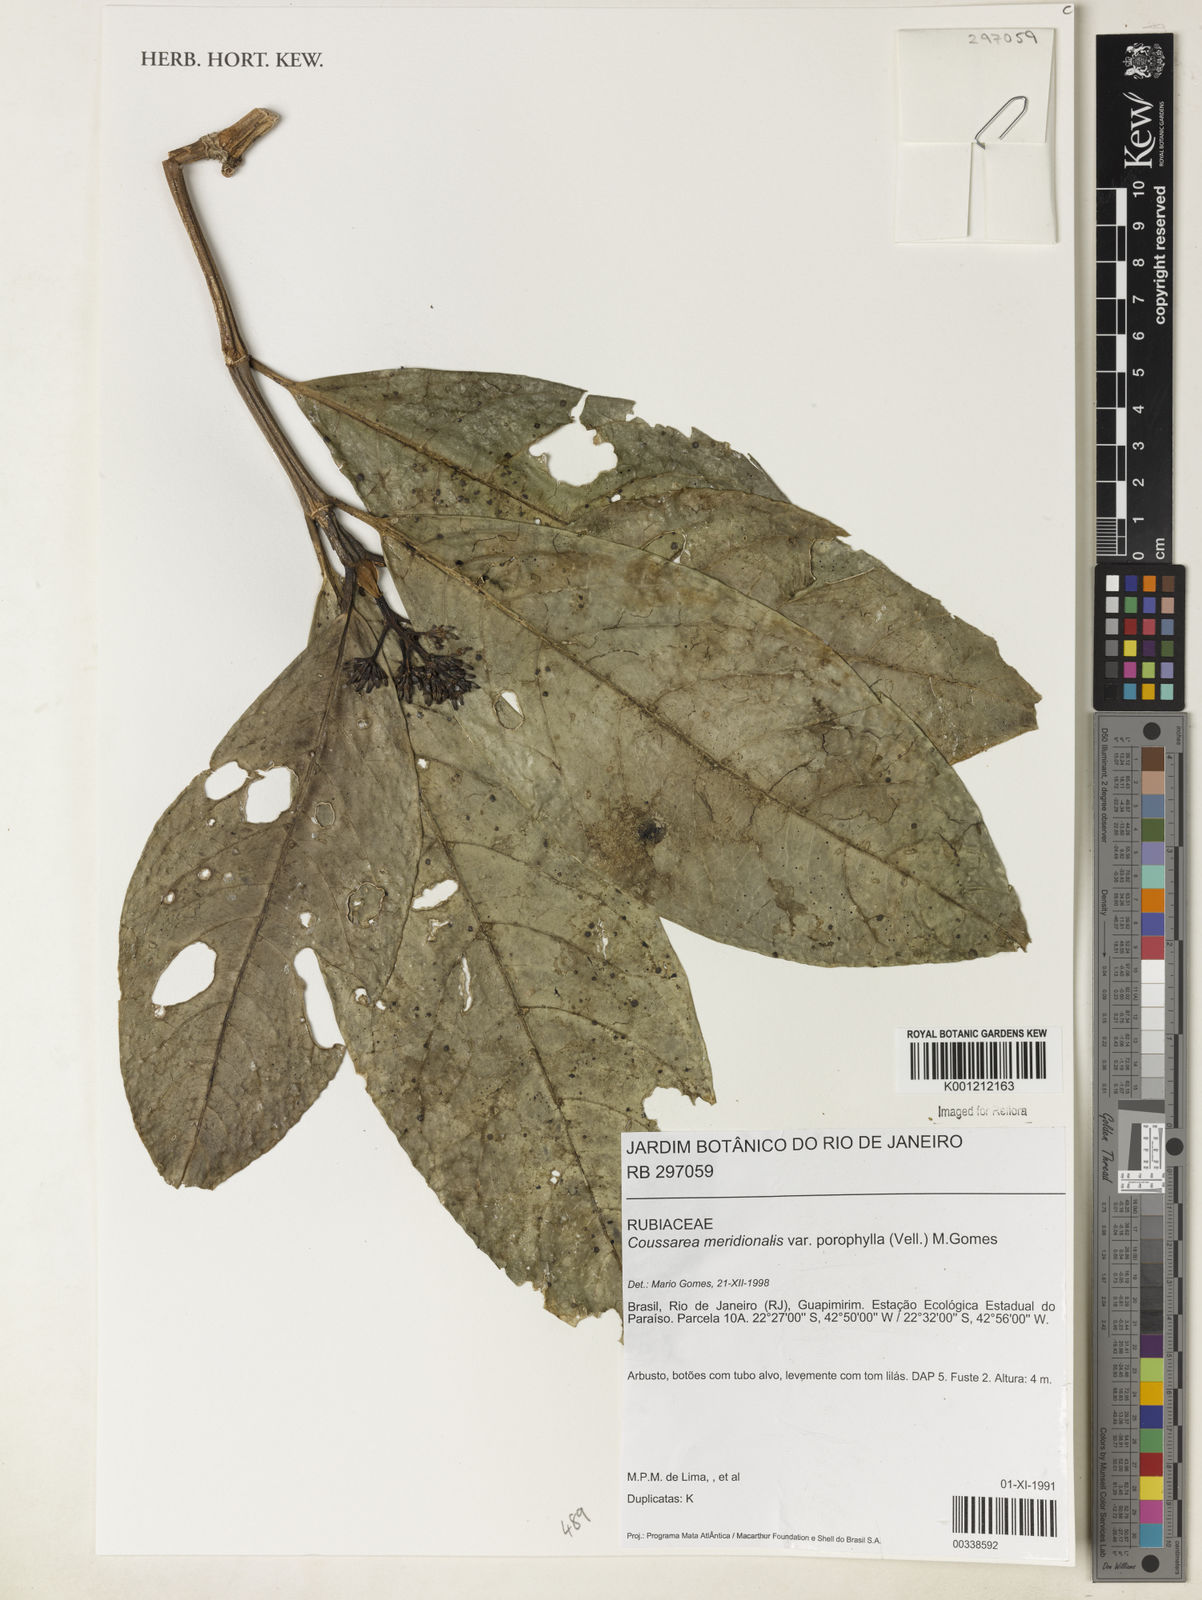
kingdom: Plantae
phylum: Tracheophyta
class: Magnoliopsida
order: Gentianales
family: Rubiaceae
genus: Coussarea
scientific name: Coussarea
